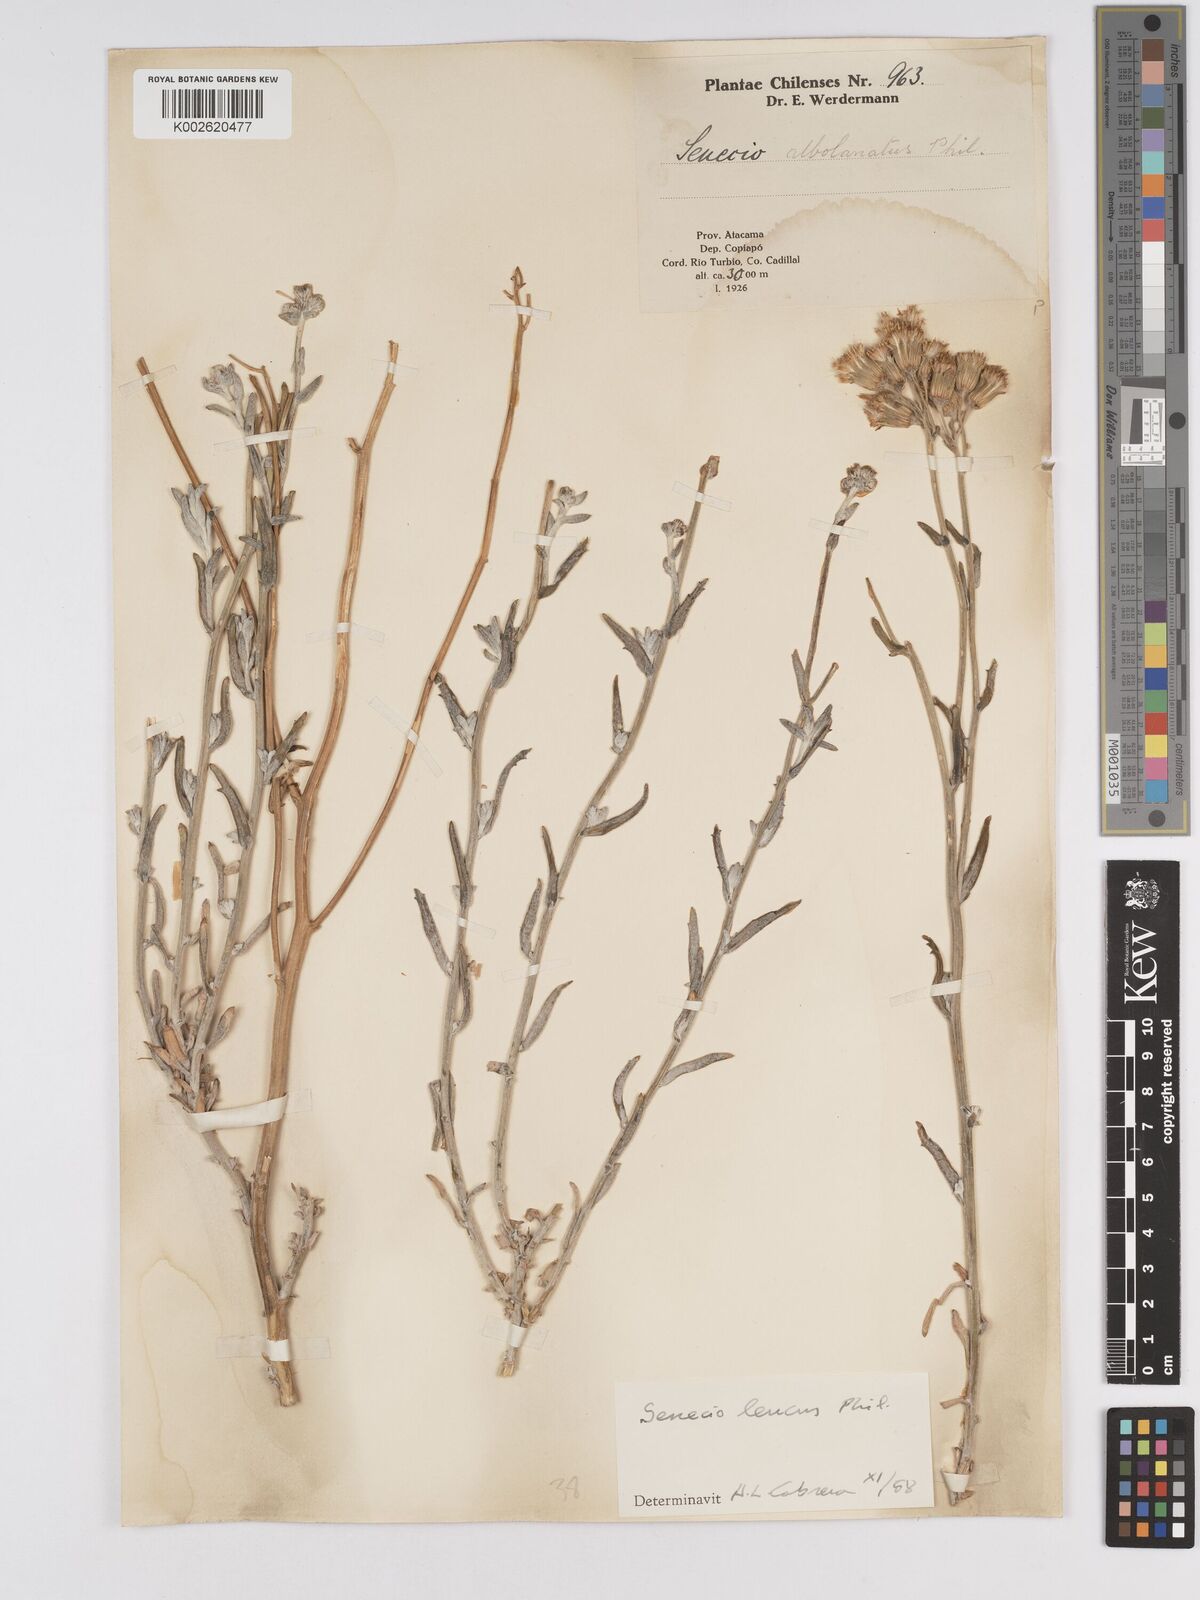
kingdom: Plantae
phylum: Tracheophyta
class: Magnoliopsida
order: Asterales
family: Asteraceae
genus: Senecio
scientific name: Senecio leucus
